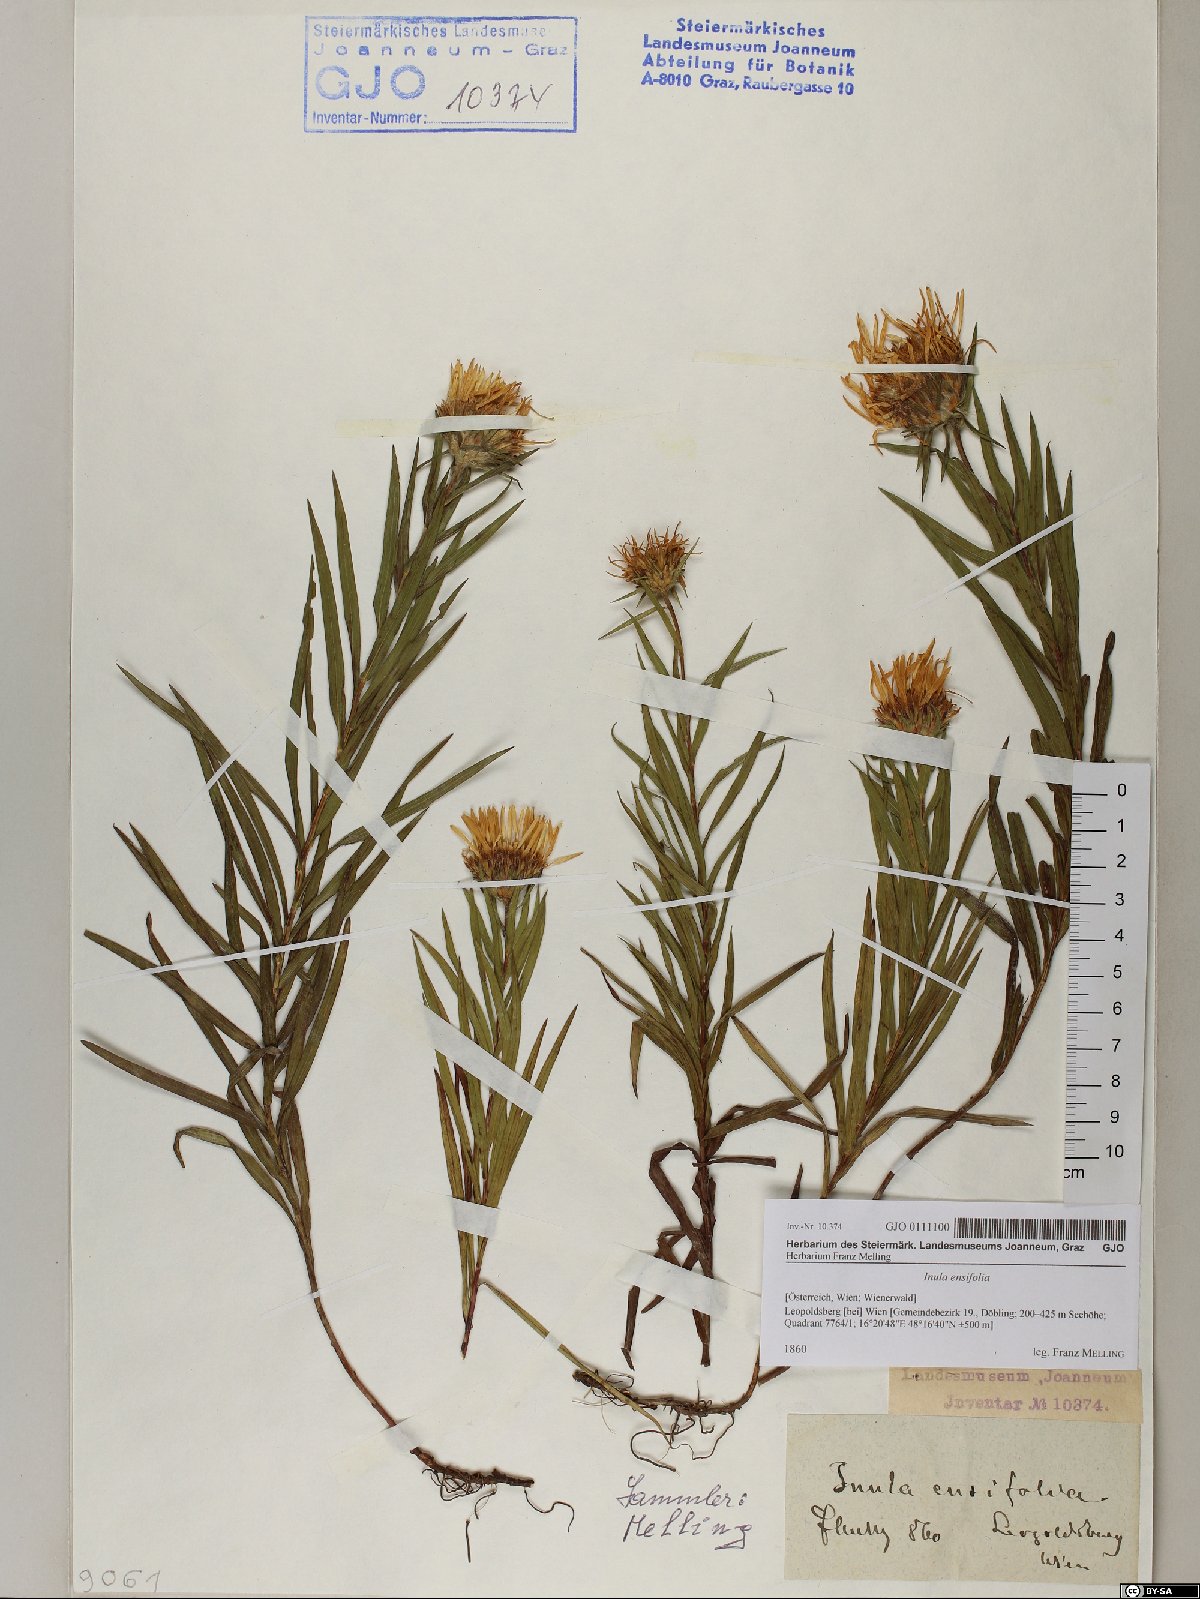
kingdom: Plantae
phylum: Tracheophyta
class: Magnoliopsida
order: Asterales
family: Asteraceae
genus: Pentanema
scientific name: Pentanema ensifolium
